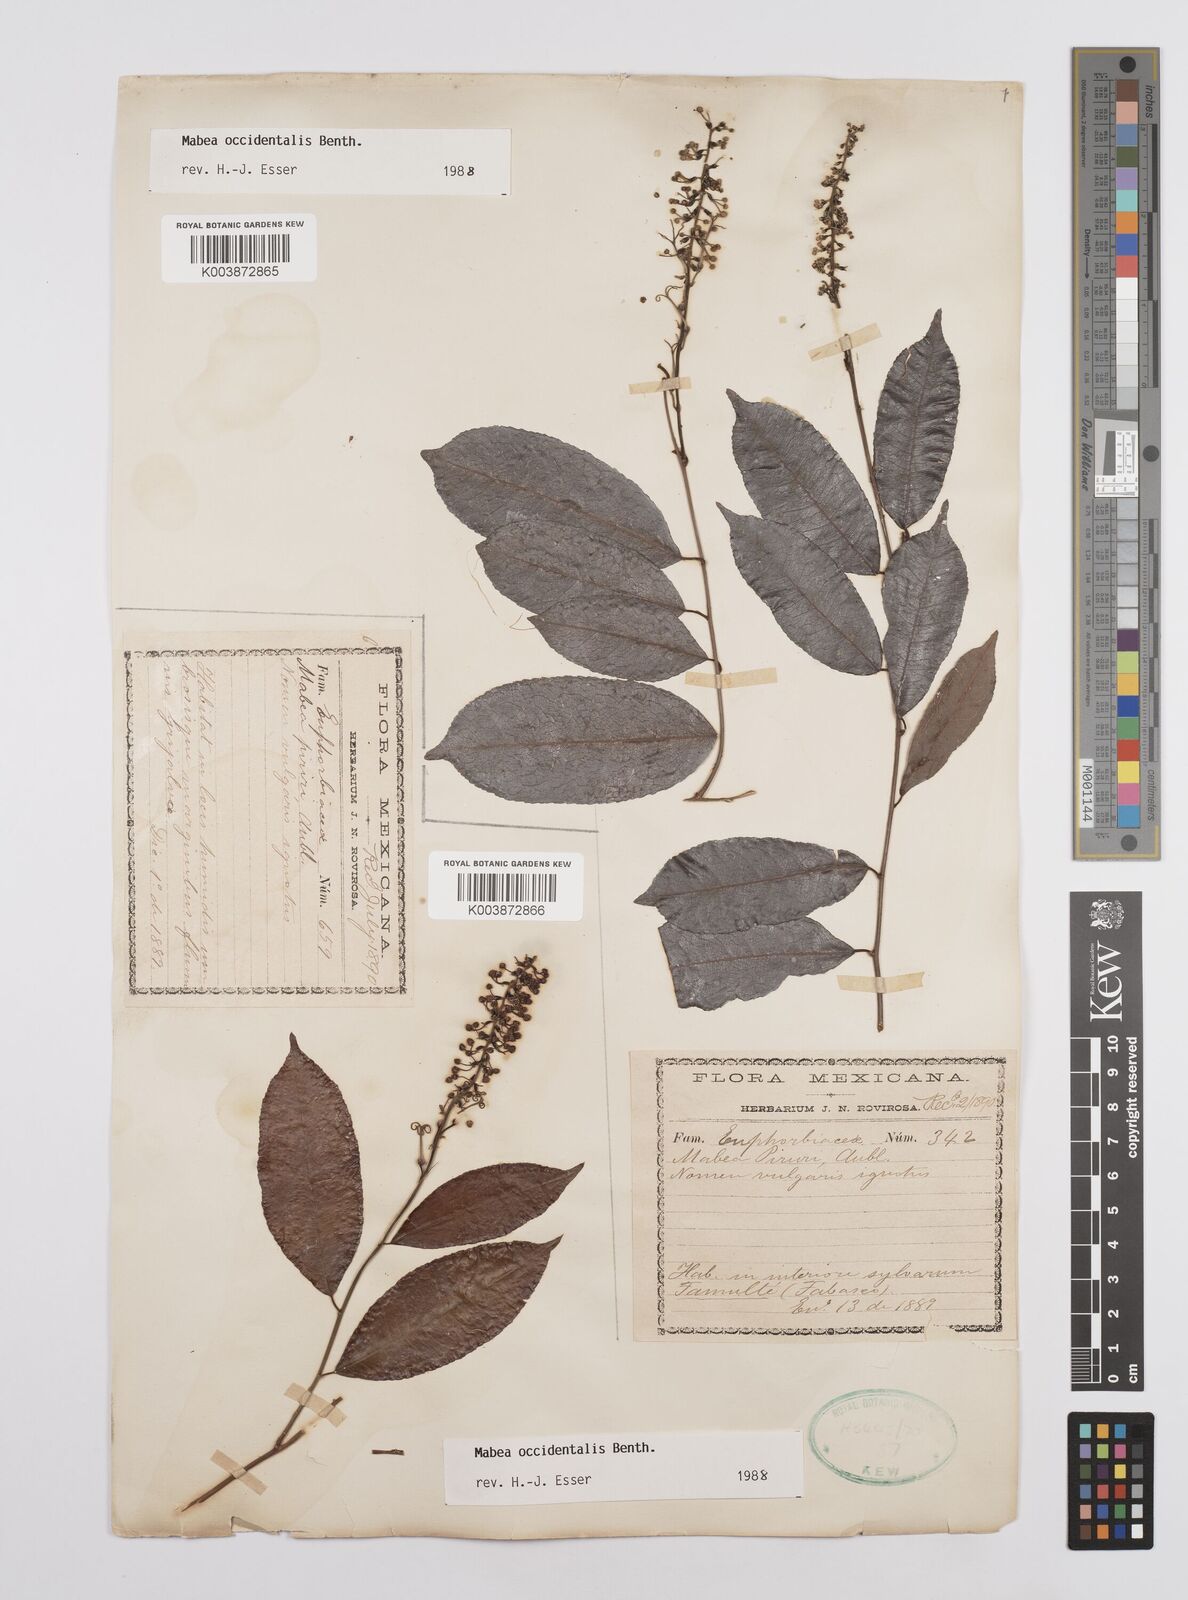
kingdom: Plantae
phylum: Tracheophyta
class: Magnoliopsida
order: Malpighiales
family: Euphorbiaceae
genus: Mabea
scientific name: Mabea occidentalis
